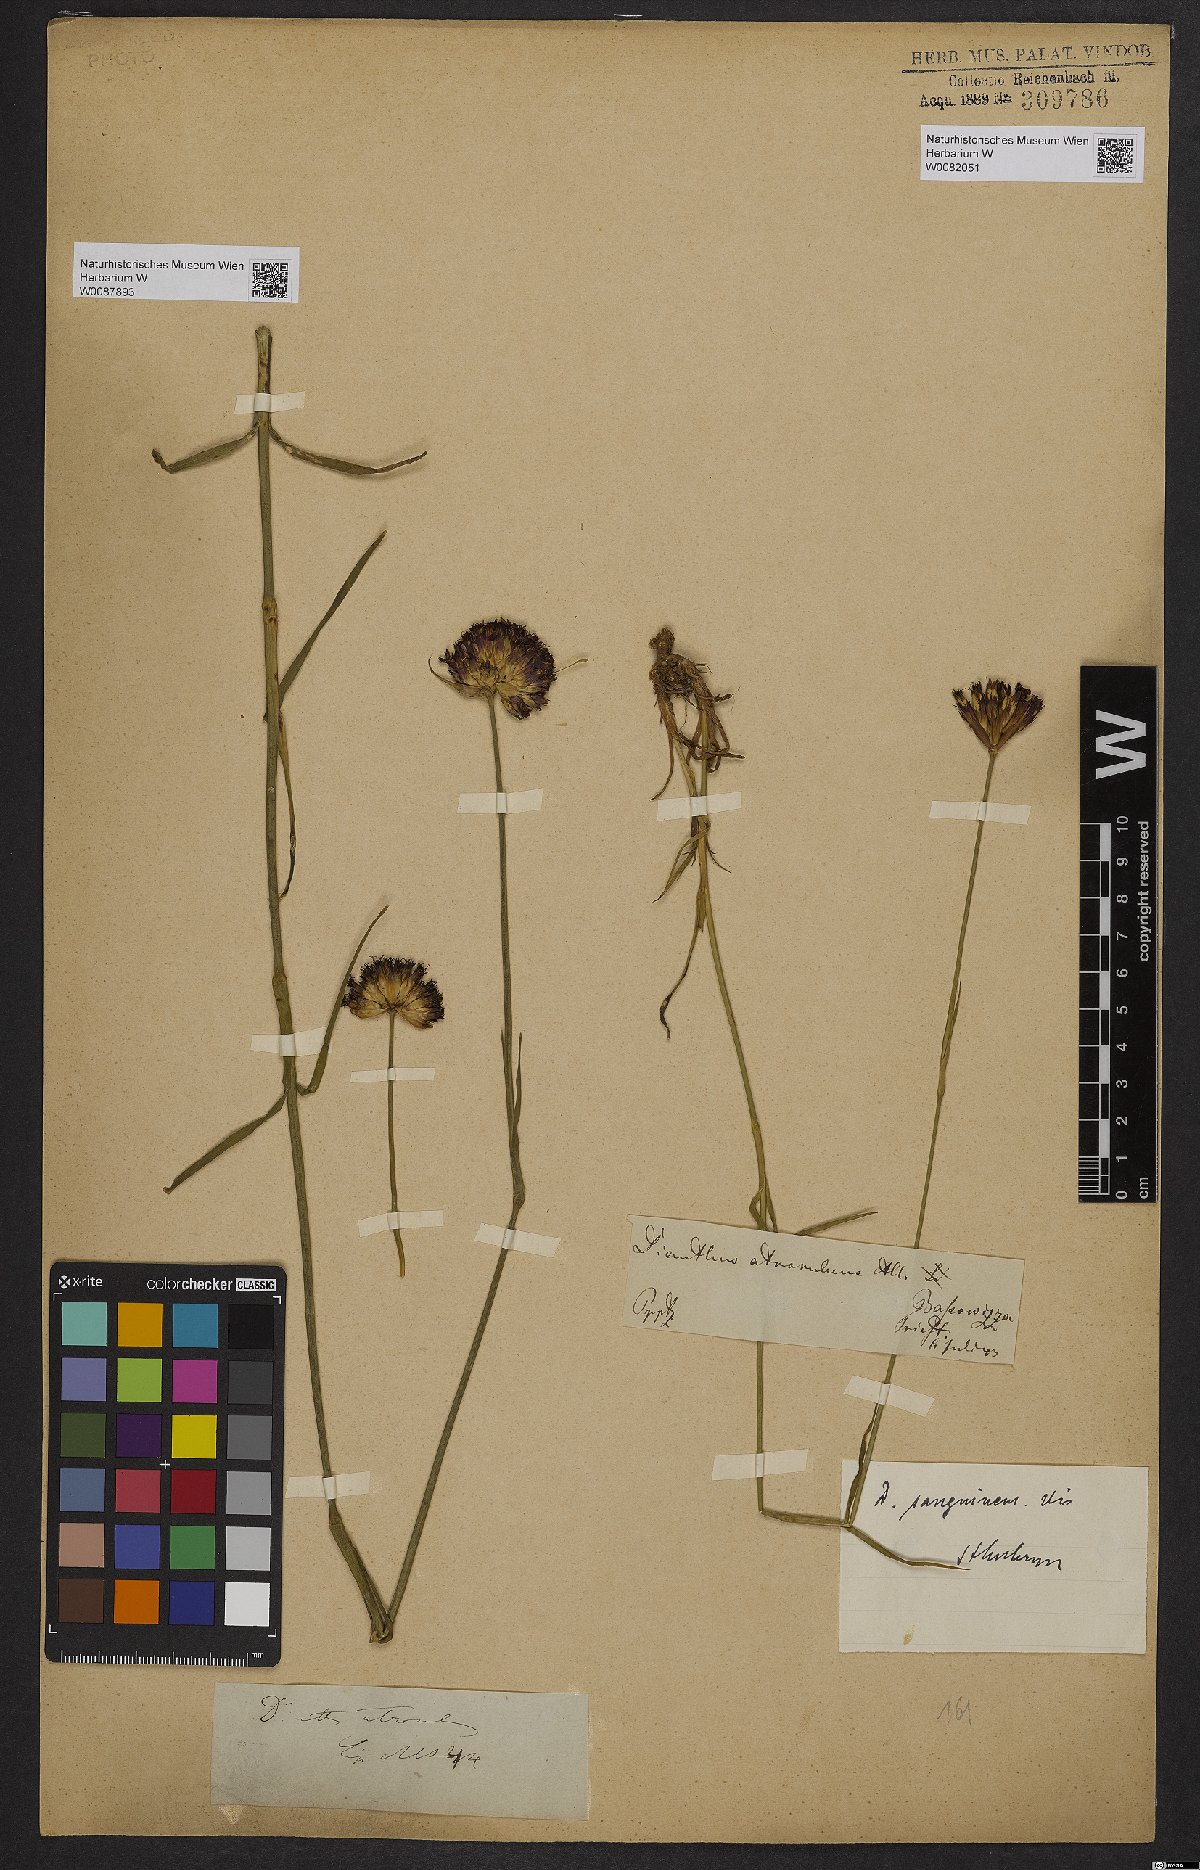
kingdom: Plantae
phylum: Tracheophyta
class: Magnoliopsida
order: Caryophyllales
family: Caryophyllaceae
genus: Dianthus
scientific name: Dianthus carthusianorum
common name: Carthusian pink
